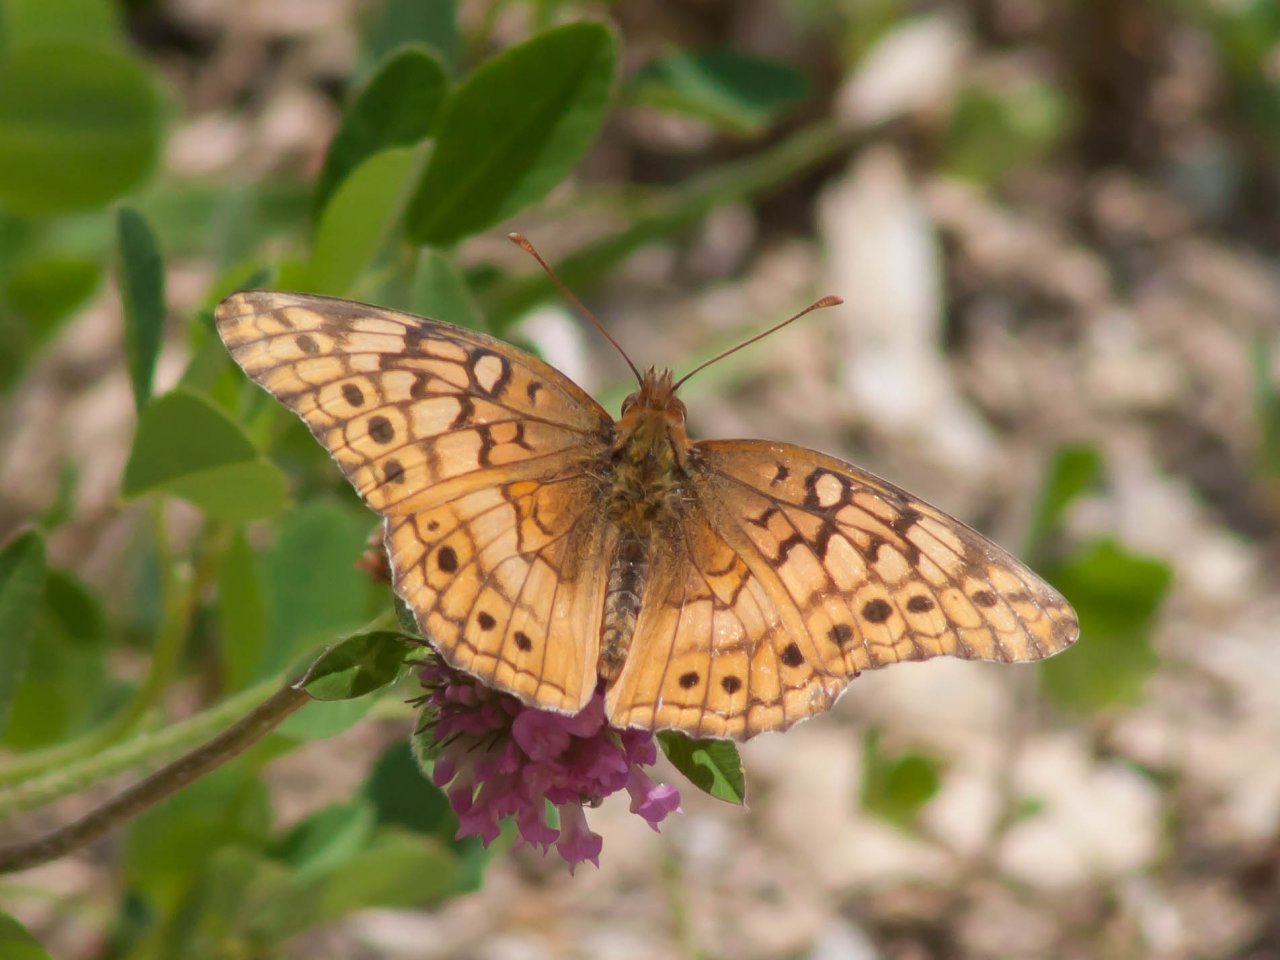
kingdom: Animalia
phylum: Arthropoda
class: Insecta
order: Lepidoptera
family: Nymphalidae
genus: Euptoieta
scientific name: Euptoieta claudia
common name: Variegated Fritillary
